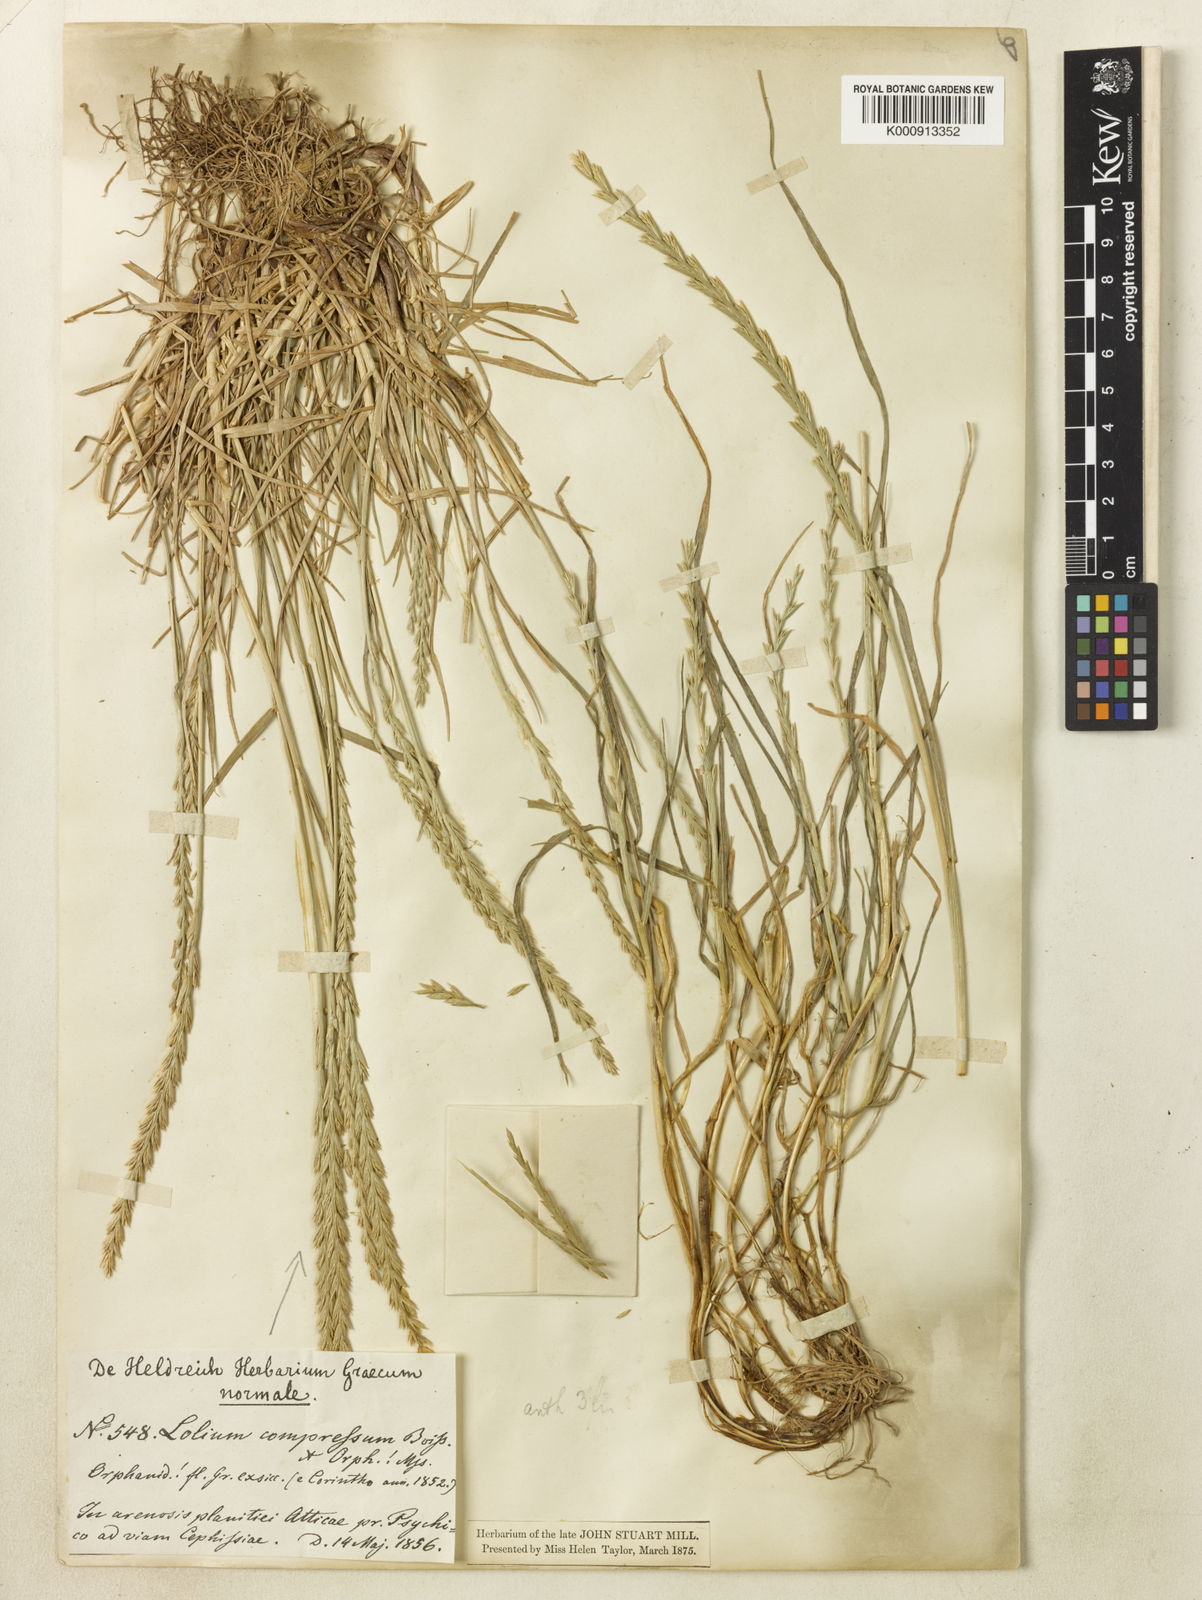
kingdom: Plantae
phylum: Tracheophyta
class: Liliopsida
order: Poales
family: Poaceae
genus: Lolium
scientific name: Lolium rigidum
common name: Wimmera ryegrass
